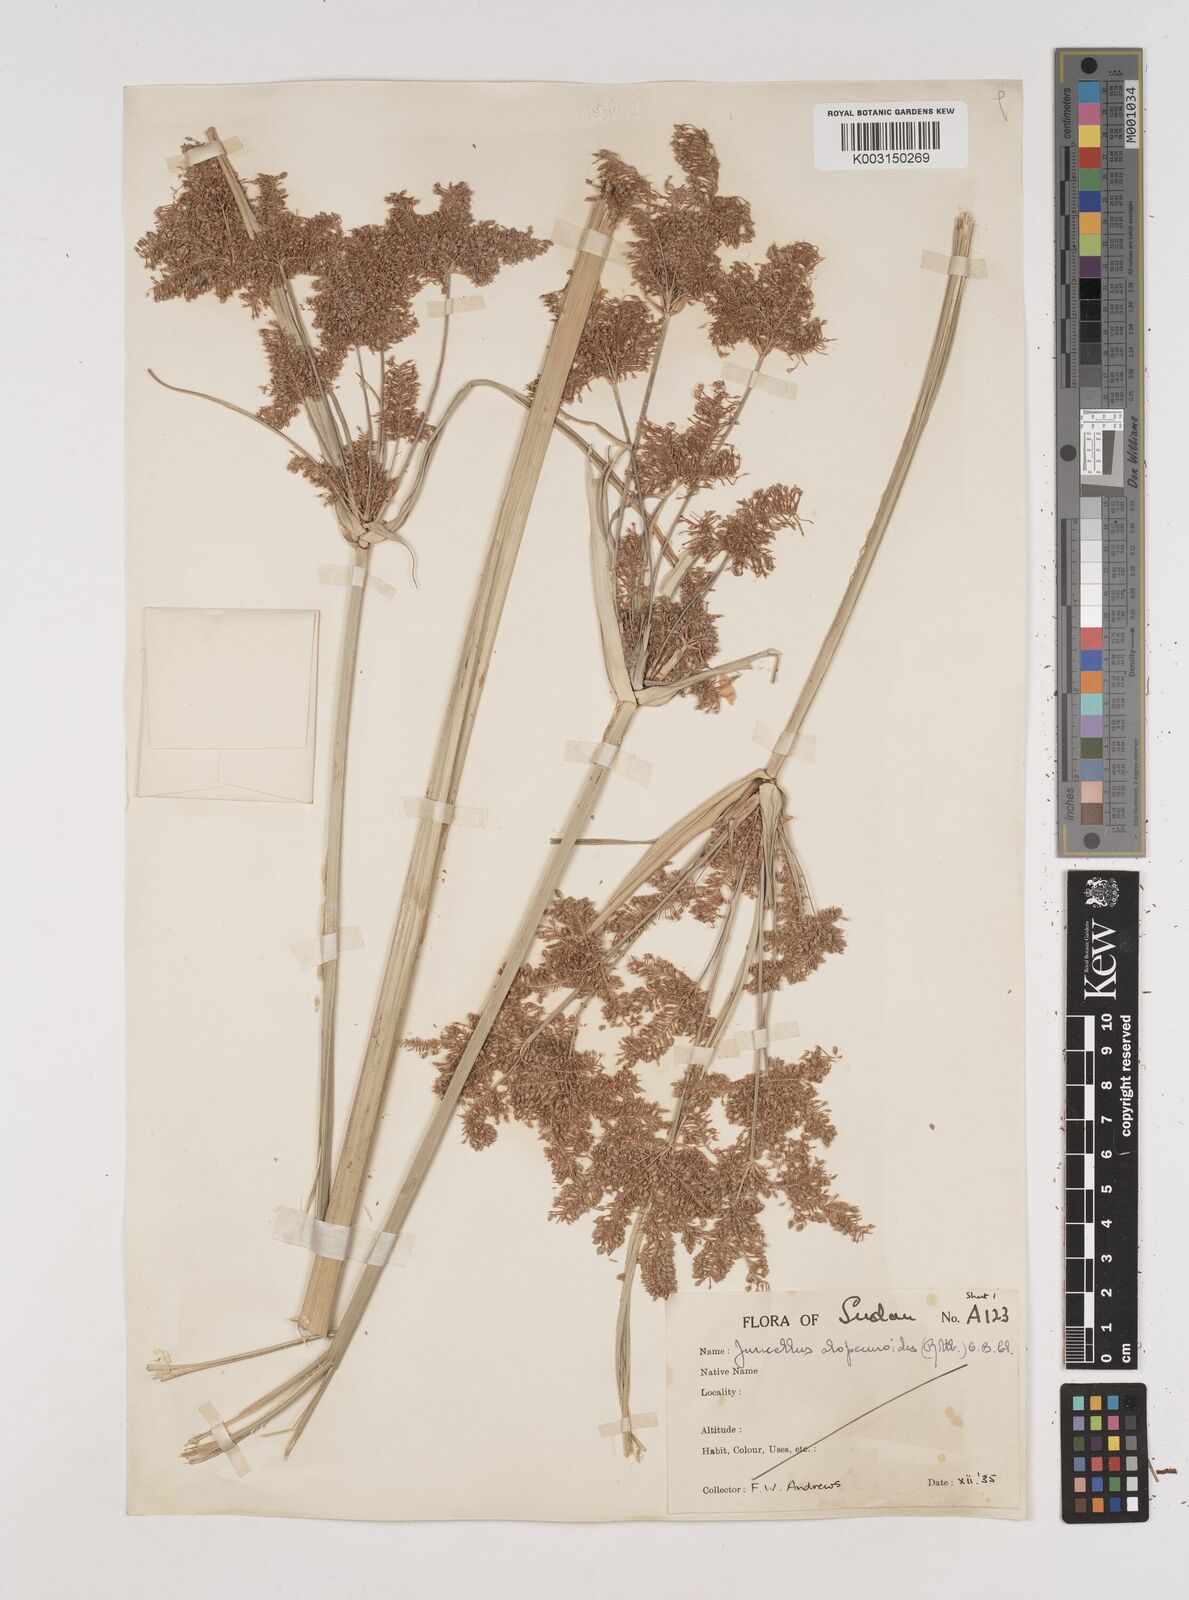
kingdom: Plantae
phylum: Tracheophyta
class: Liliopsida
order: Poales
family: Cyperaceae
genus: Cyperus
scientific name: Cyperus alopecuroides
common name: Foxtail flatsedge
